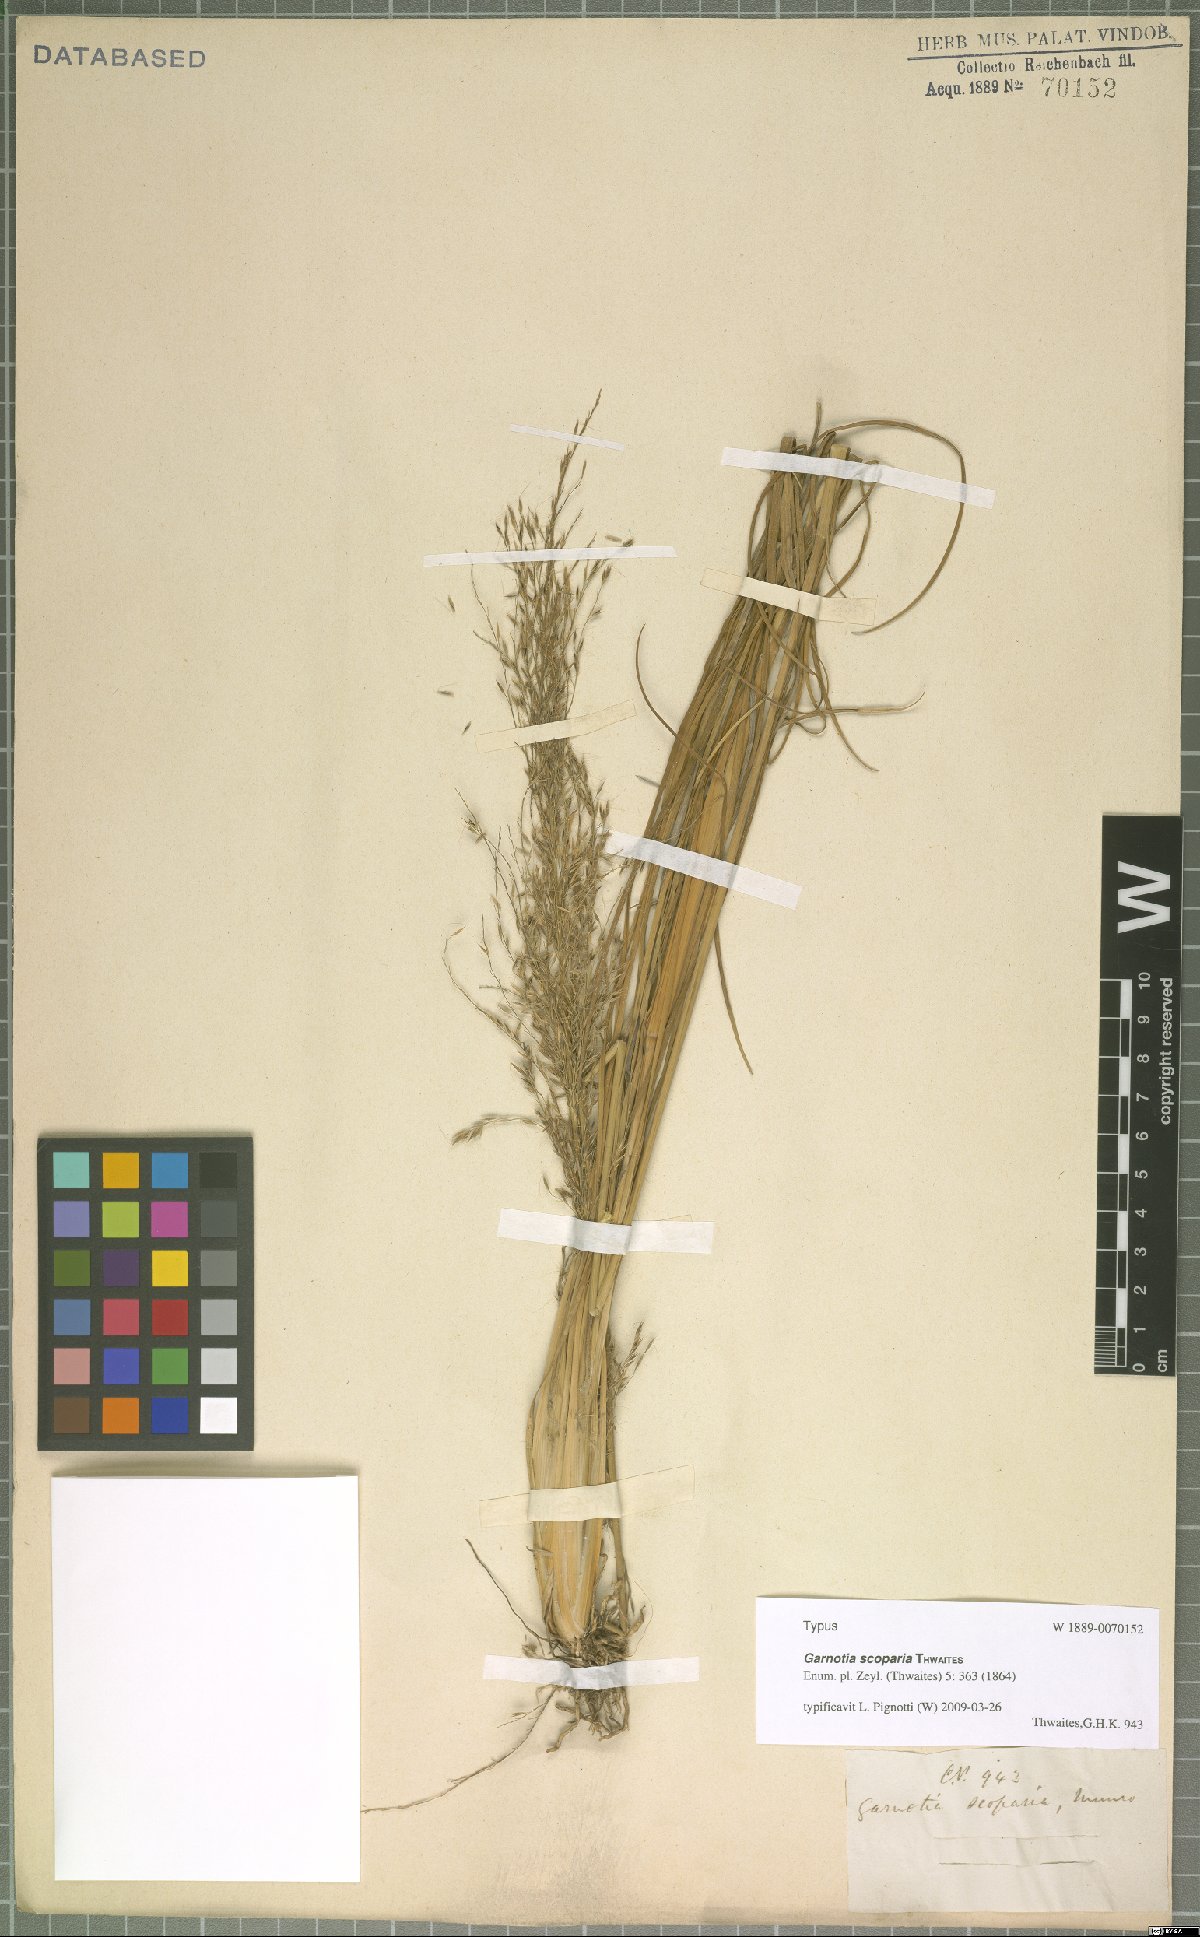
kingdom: Plantae
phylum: Tracheophyta
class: Liliopsida
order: Poales
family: Poaceae
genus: Garnotia
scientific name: Garnotia scoparia
